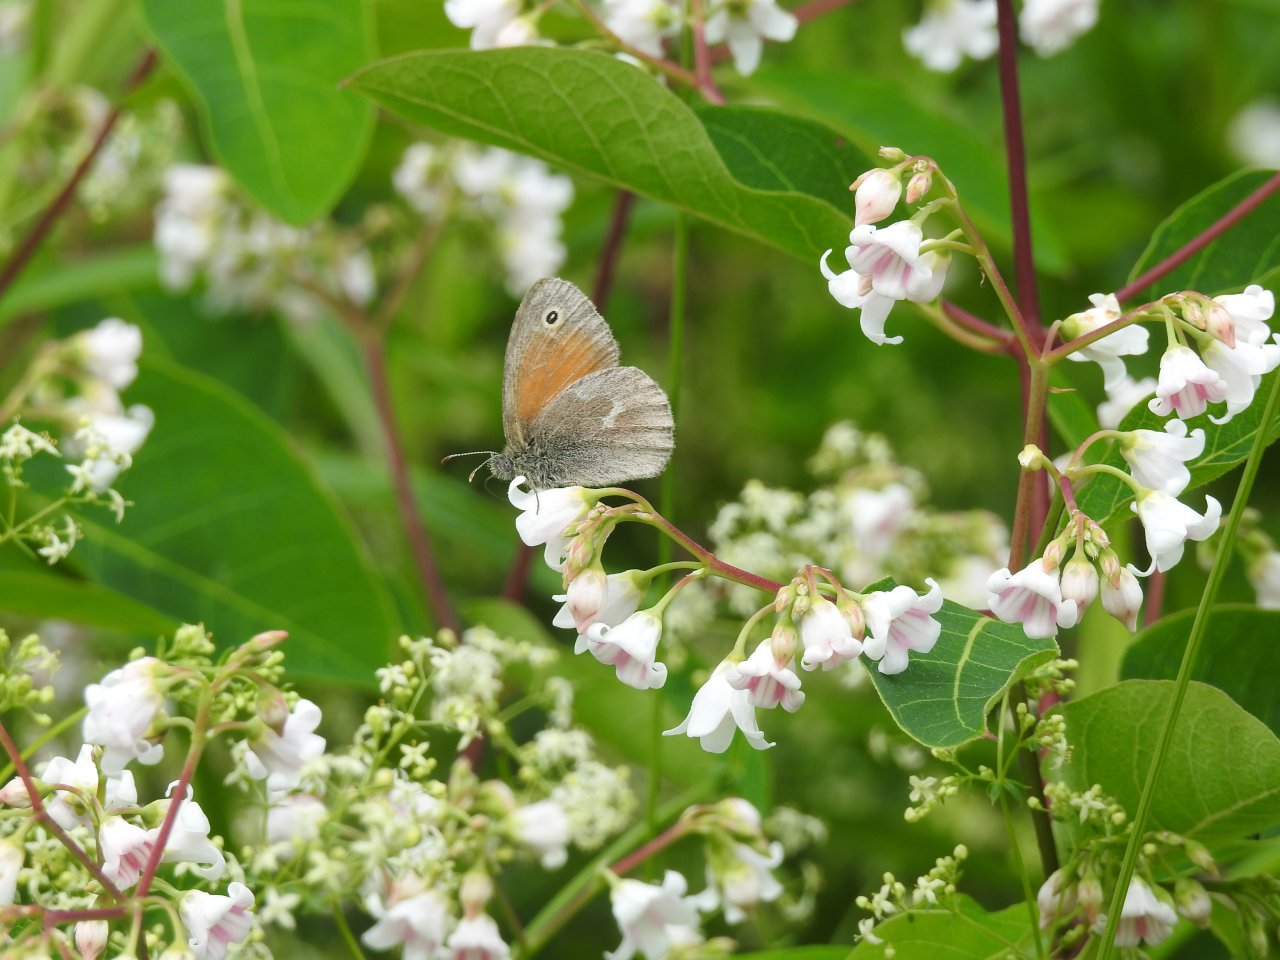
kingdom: Animalia
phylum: Arthropoda
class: Insecta
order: Lepidoptera
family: Nymphalidae
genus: Coenonympha
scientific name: Coenonympha tullia
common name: Large Heath
